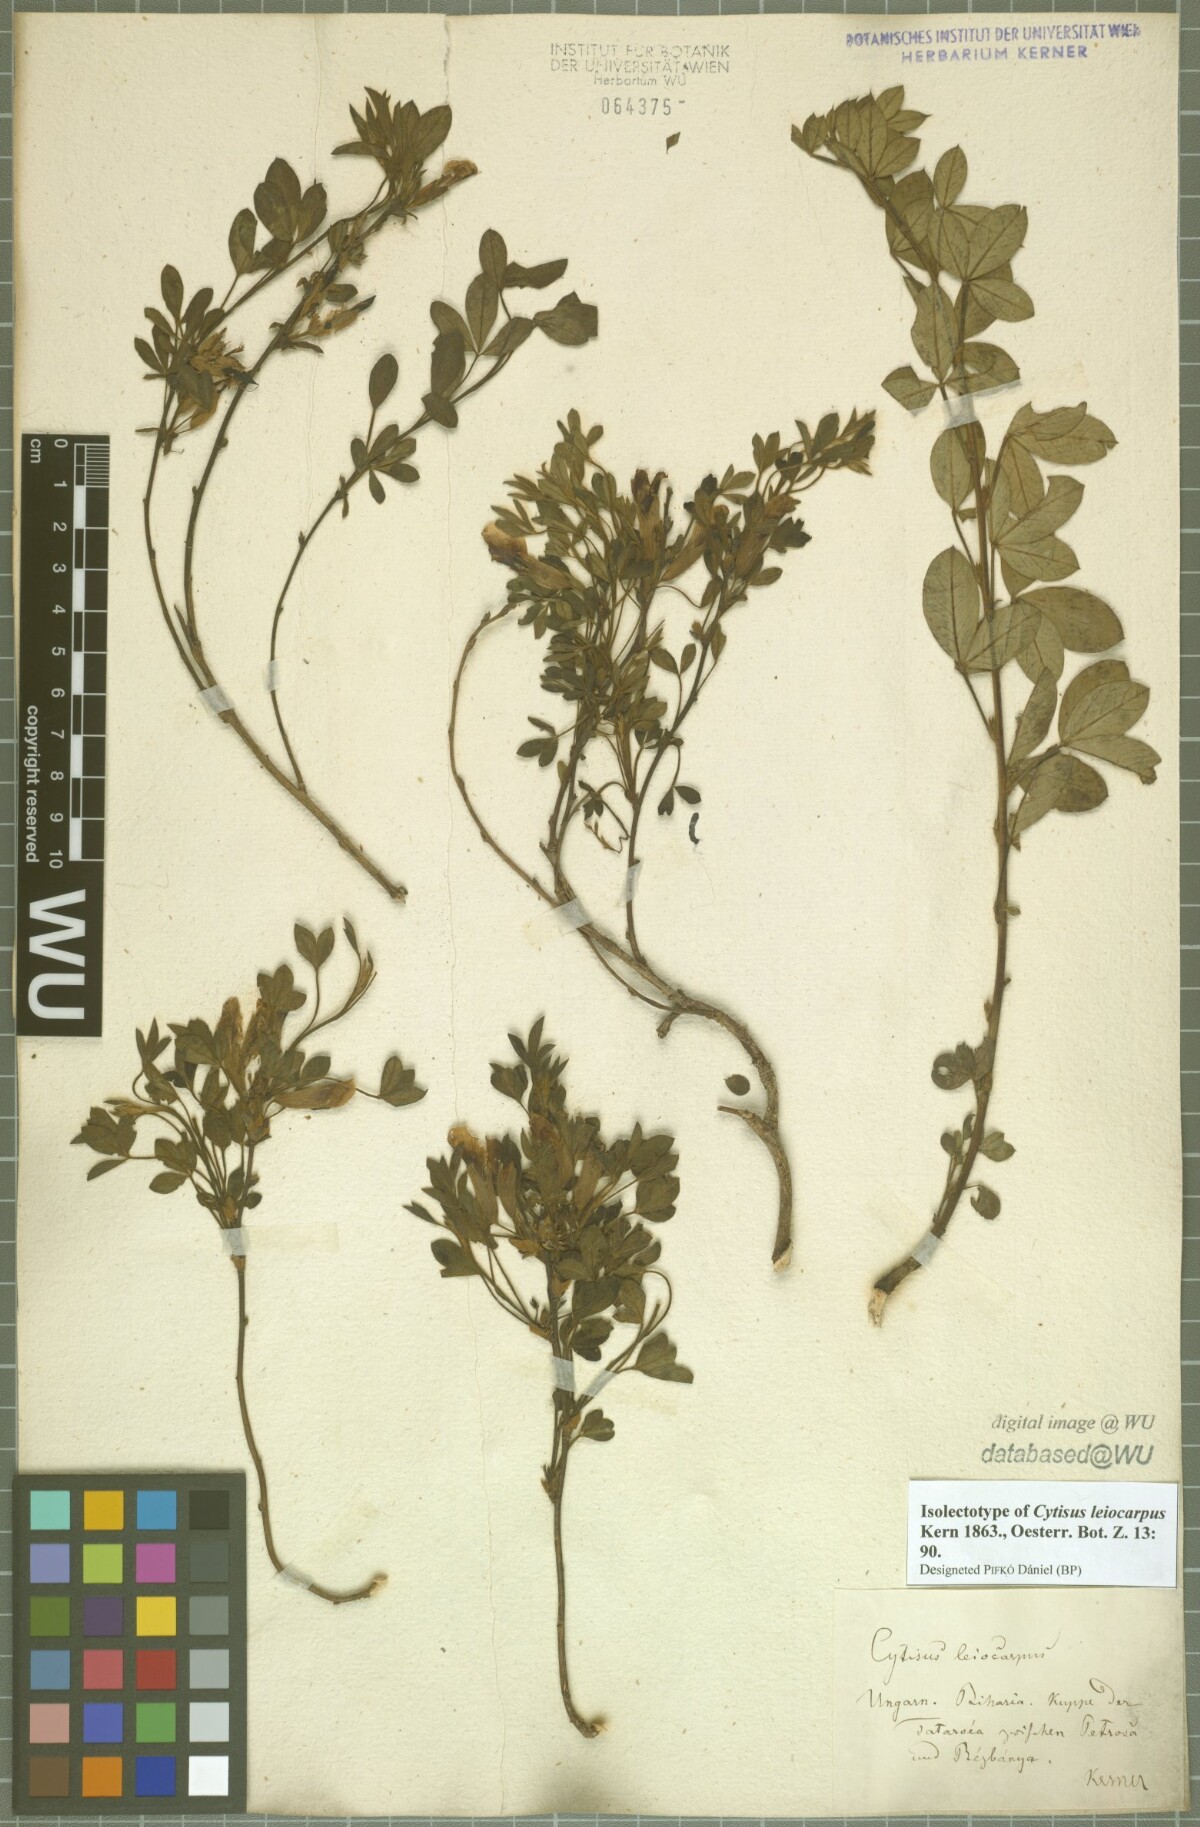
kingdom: Plantae
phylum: Tracheophyta
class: Magnoliopsida
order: Fabales
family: Fabaceae
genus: Chamaecytisus
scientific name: Chamaecytisus leiocarpus
